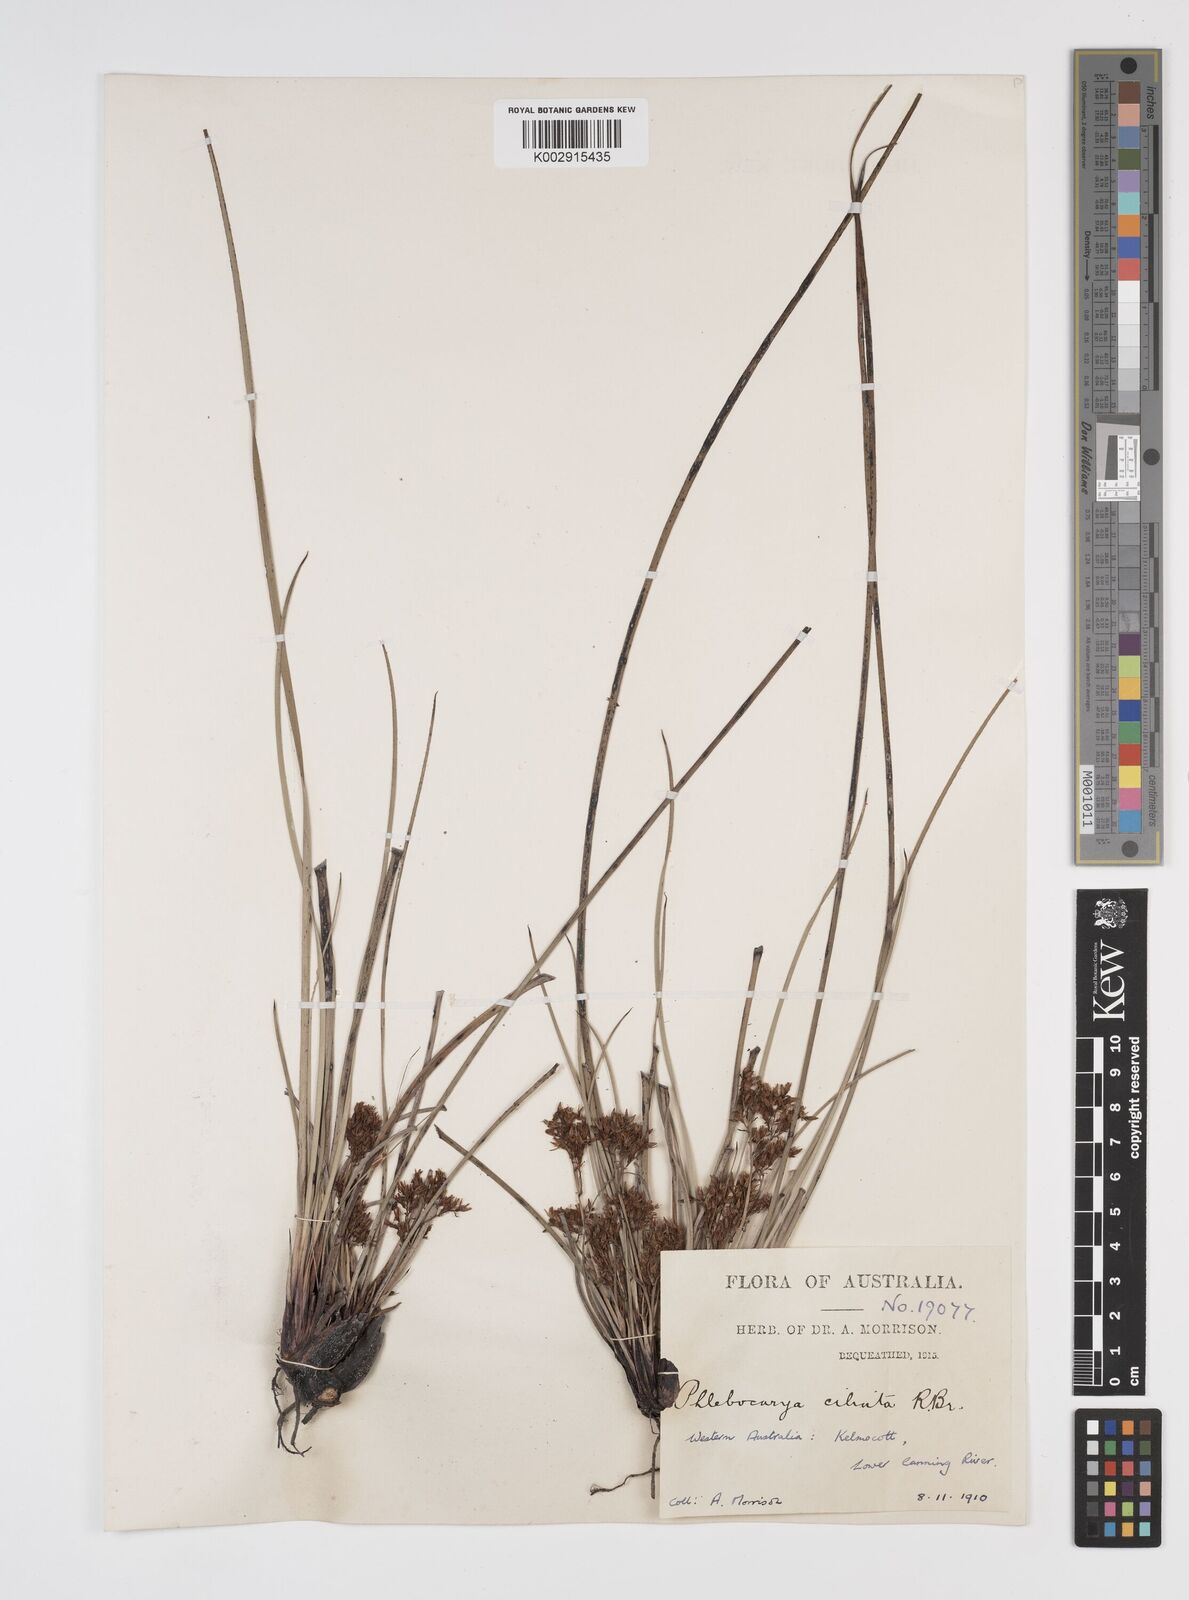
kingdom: Plantae
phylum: Tracheophyta
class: Liliopsida
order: Commelinales
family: Haemodoraceae
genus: Phlebocarya
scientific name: Phlebocarya ciliata
